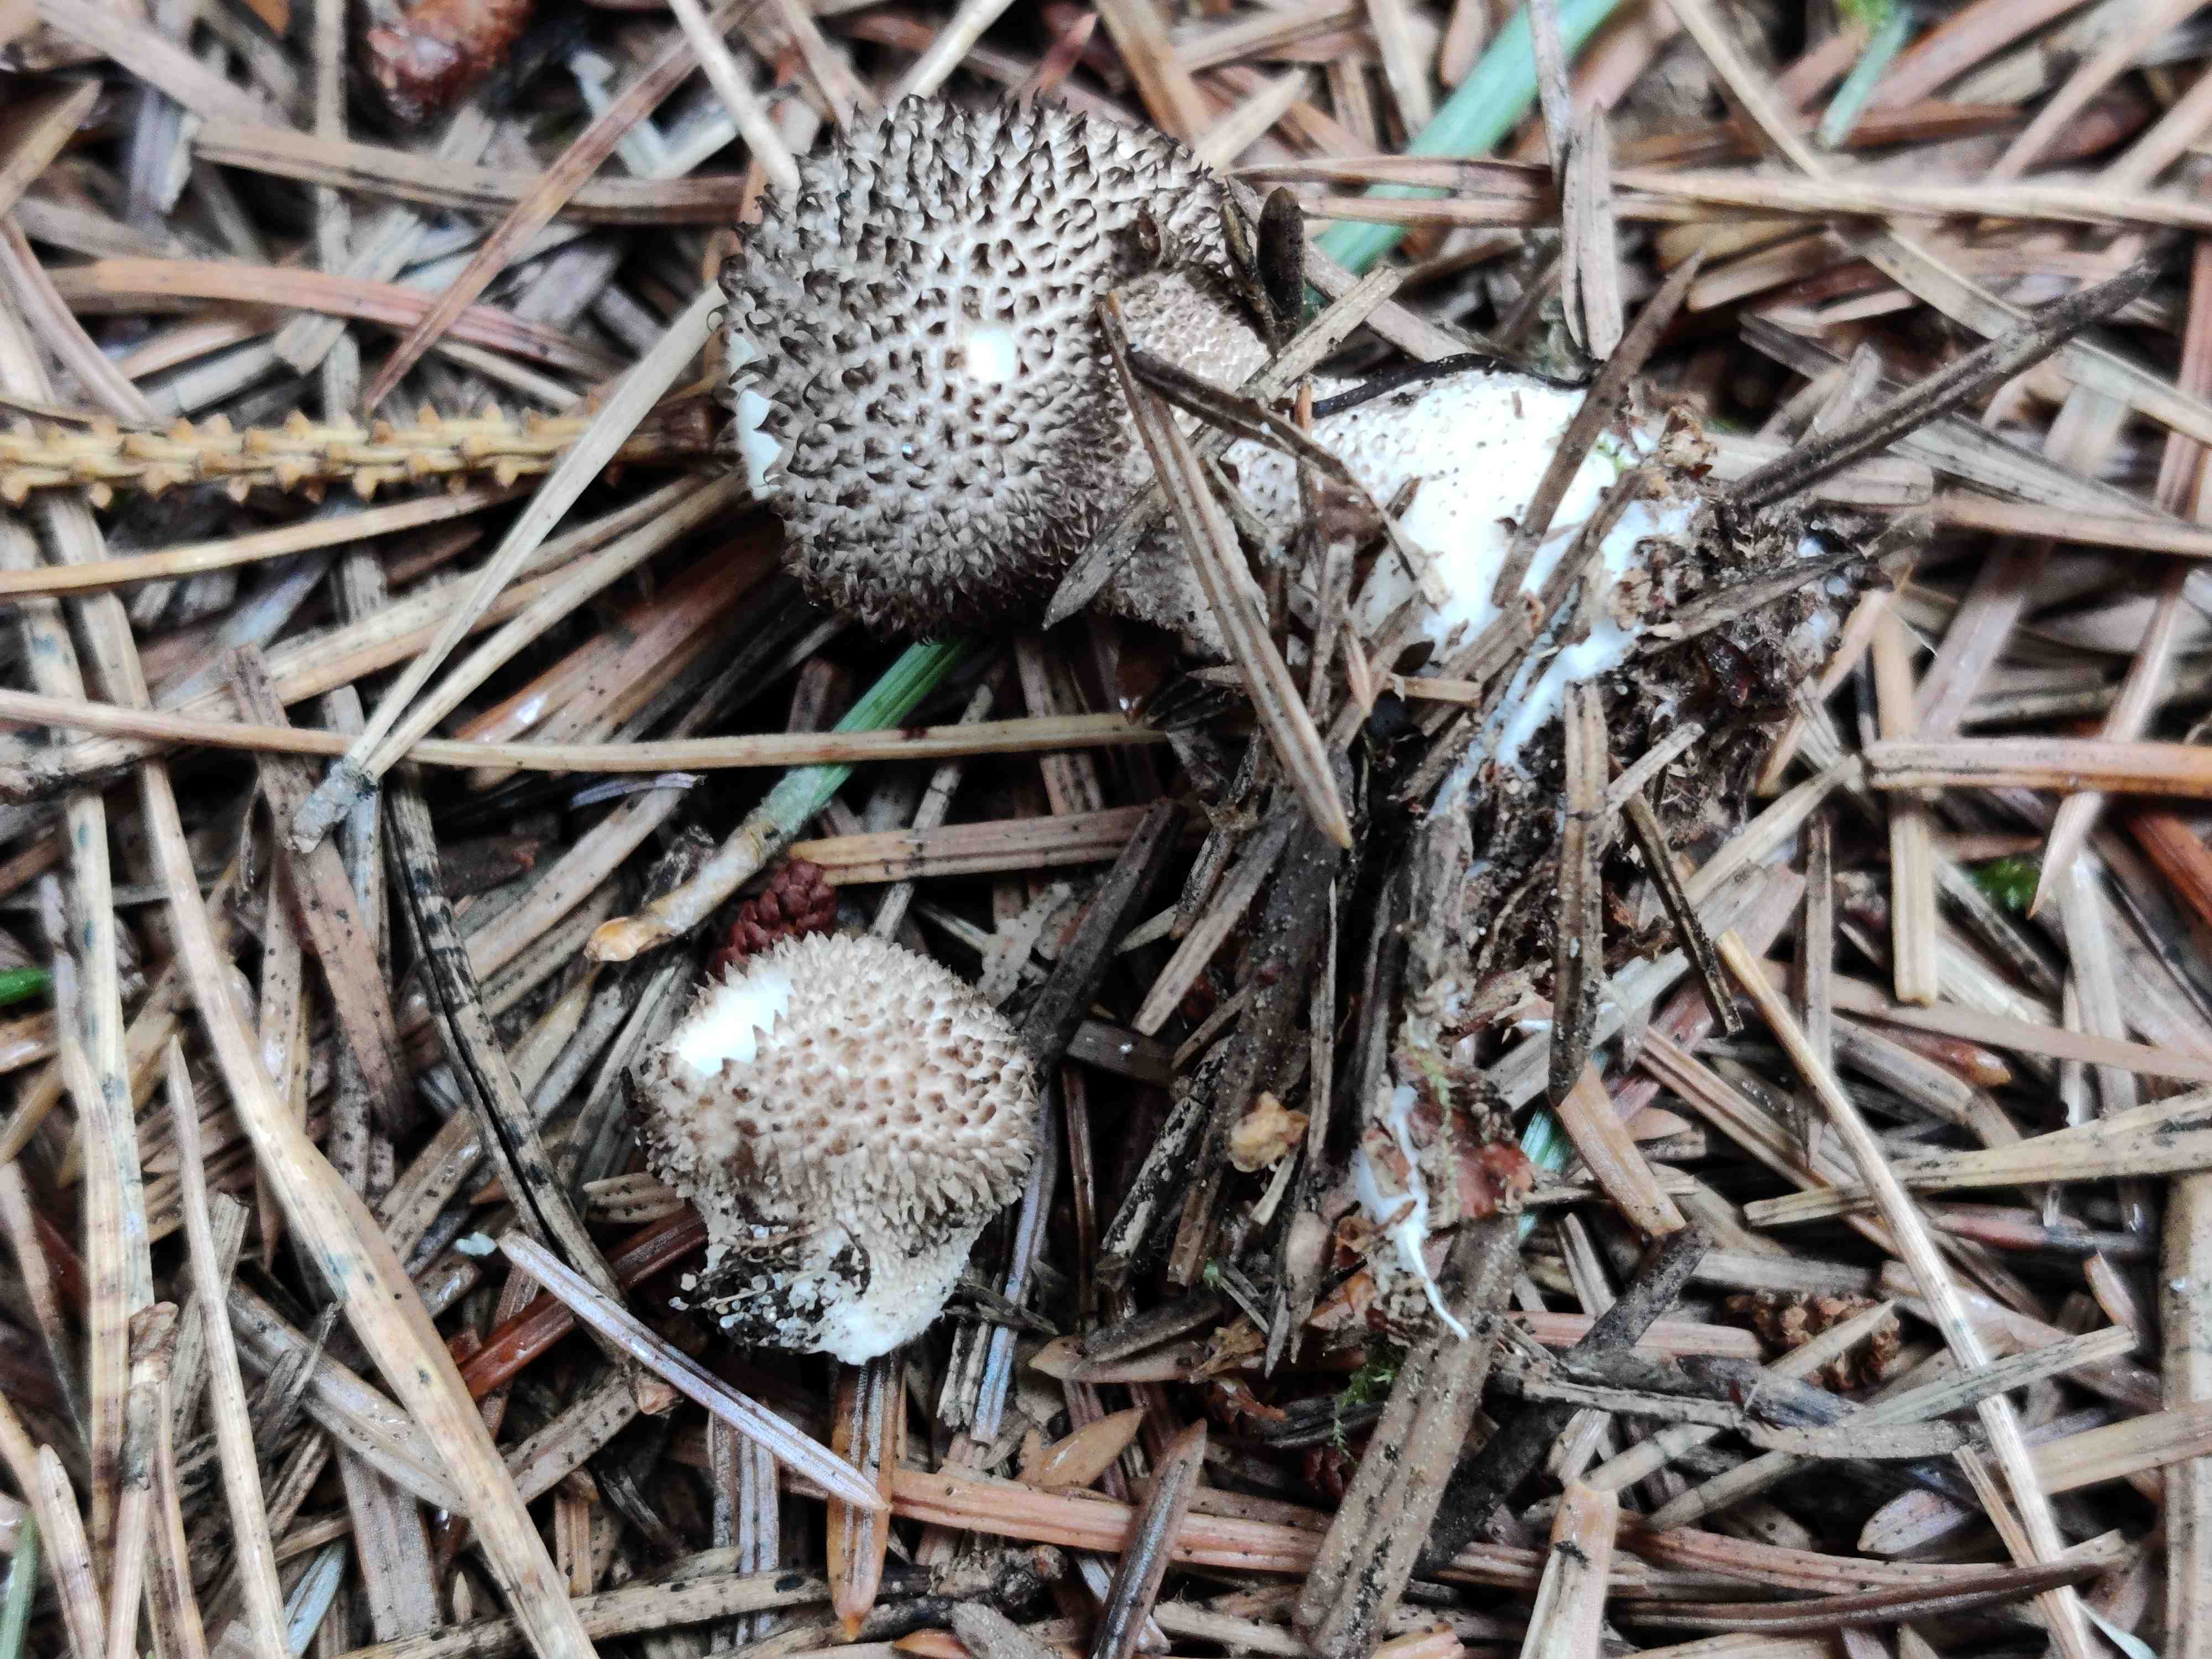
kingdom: Fungi
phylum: Basidiomycota
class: Agaricomycetes
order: Agaricales
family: Lycoperdaceae
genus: Lycoperdon
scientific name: Lycoperdon nigrescens
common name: sortagtig støvbold
